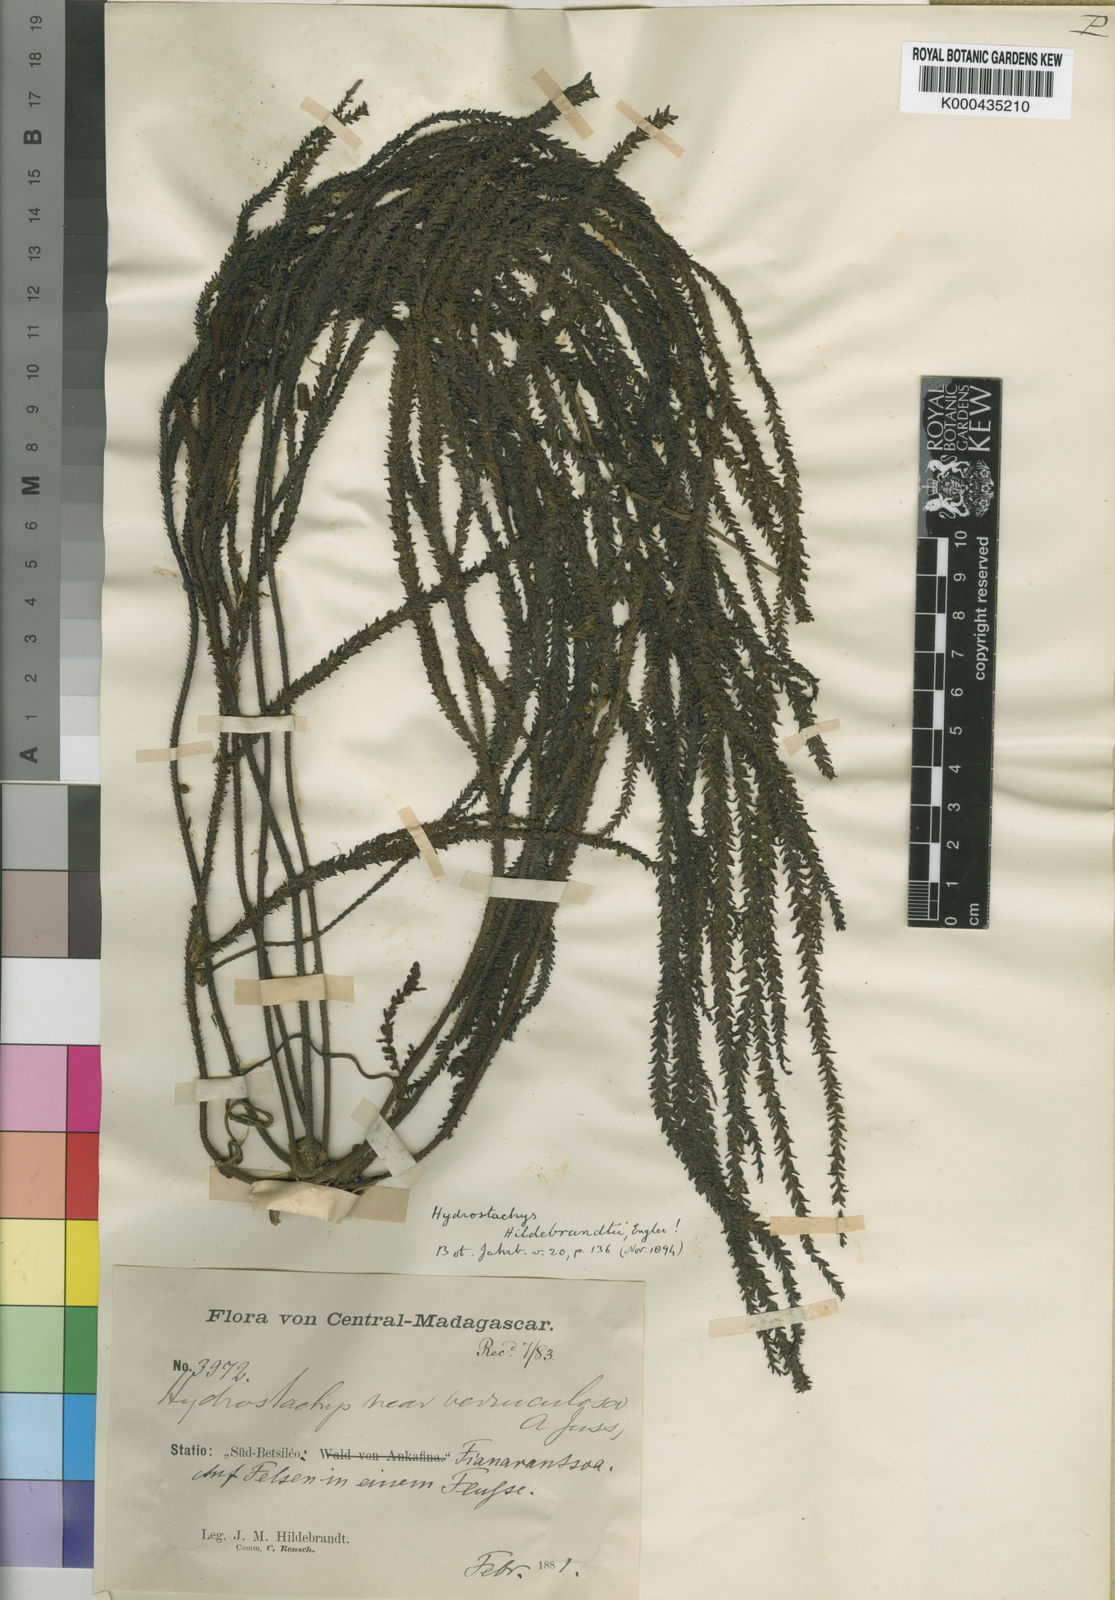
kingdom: Plantae
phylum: Tracheophyta
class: Magnoliopsida
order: Cornales
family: Hydrostachyaceae
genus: Hydrostachys
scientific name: Hydrostachys distichophylla
